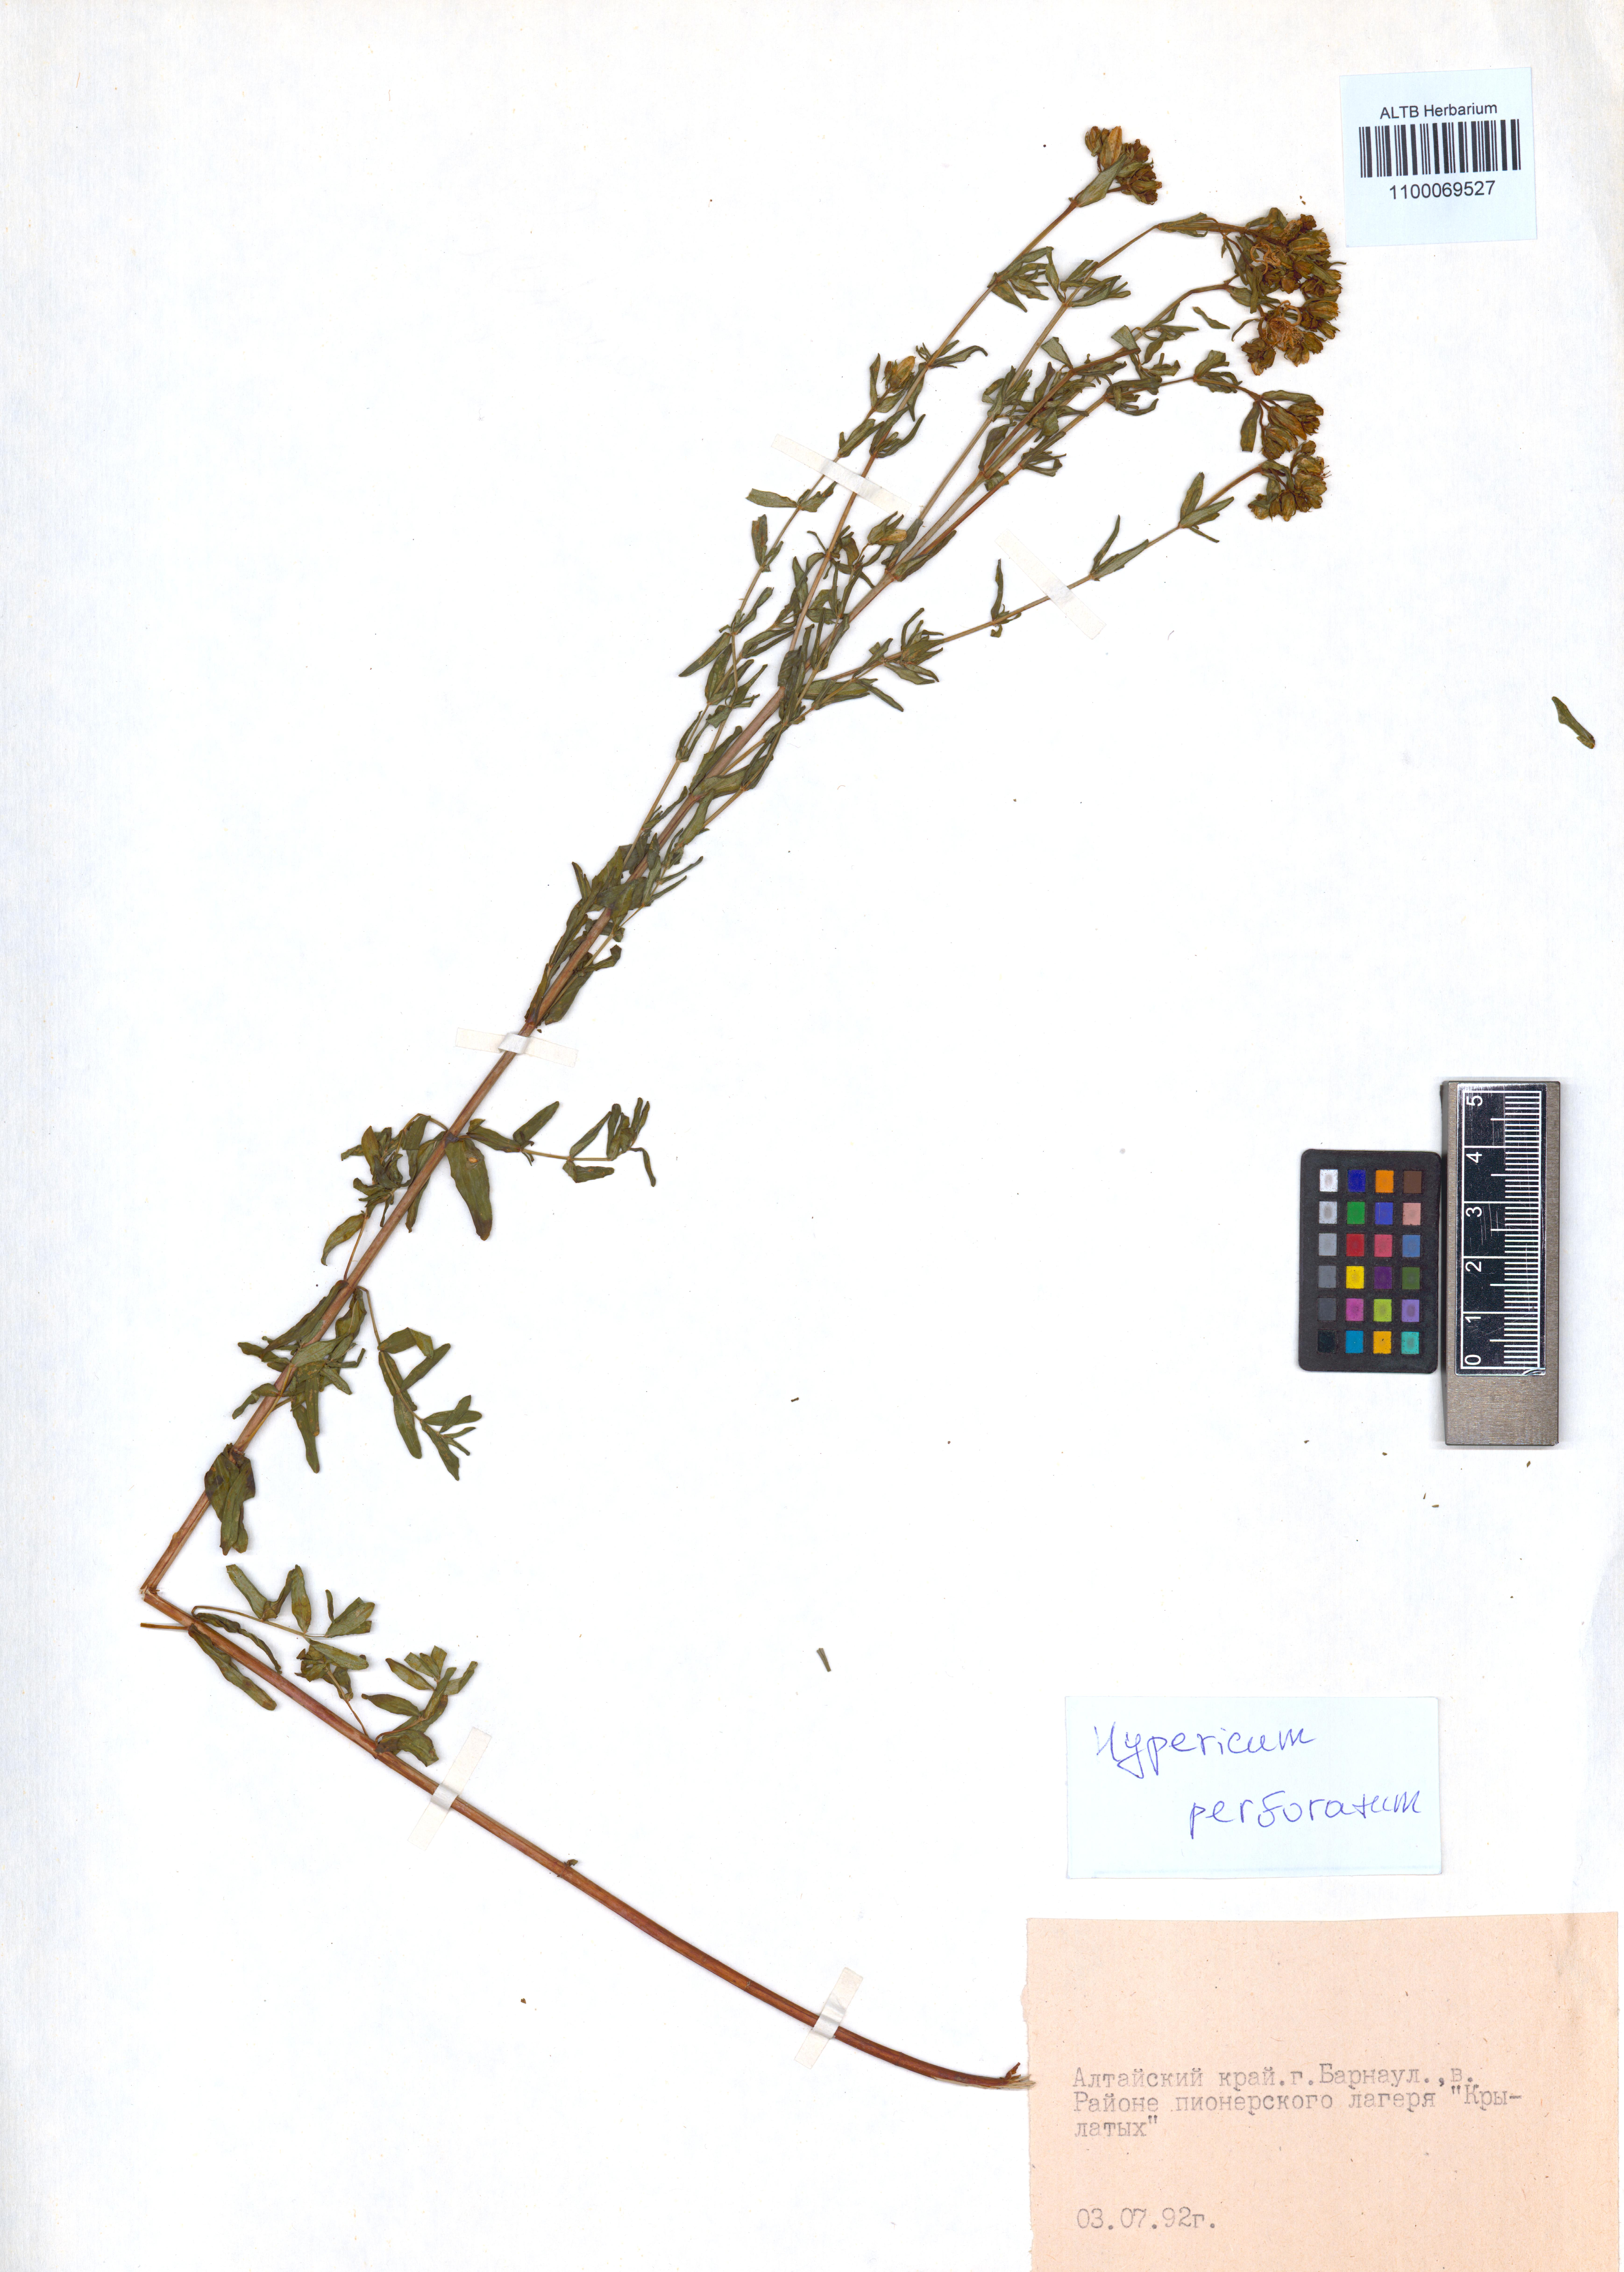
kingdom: Plantae
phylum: Tracheophyta
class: Magnoliopsida
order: Malpighiales
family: Hypericaceae
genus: Hypericum
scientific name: Hypericum perforatum
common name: Common st. johnswort
